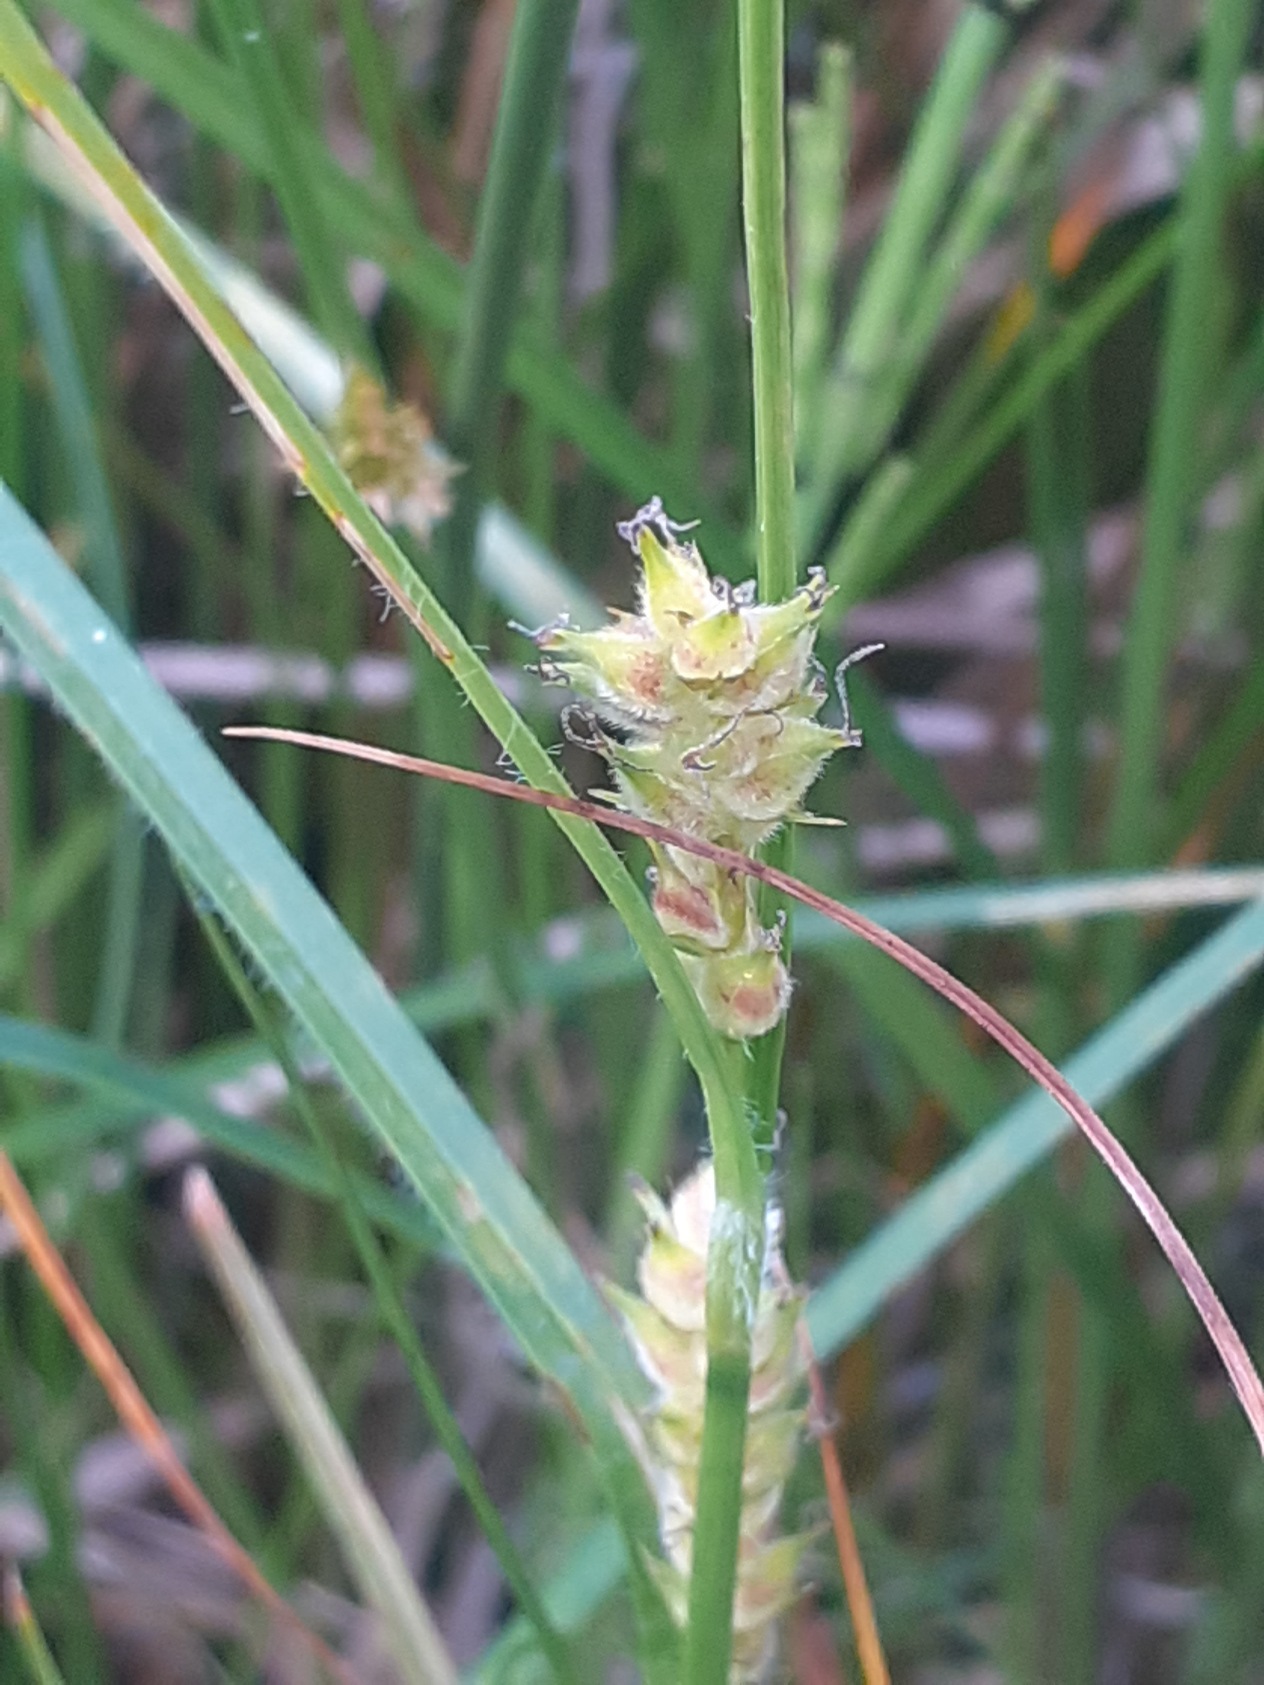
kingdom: Plantae
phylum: Tracheophyta
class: Liliopsida
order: Poales
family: Cyperaceae
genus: Carex
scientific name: Carex hirta
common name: Håret star
